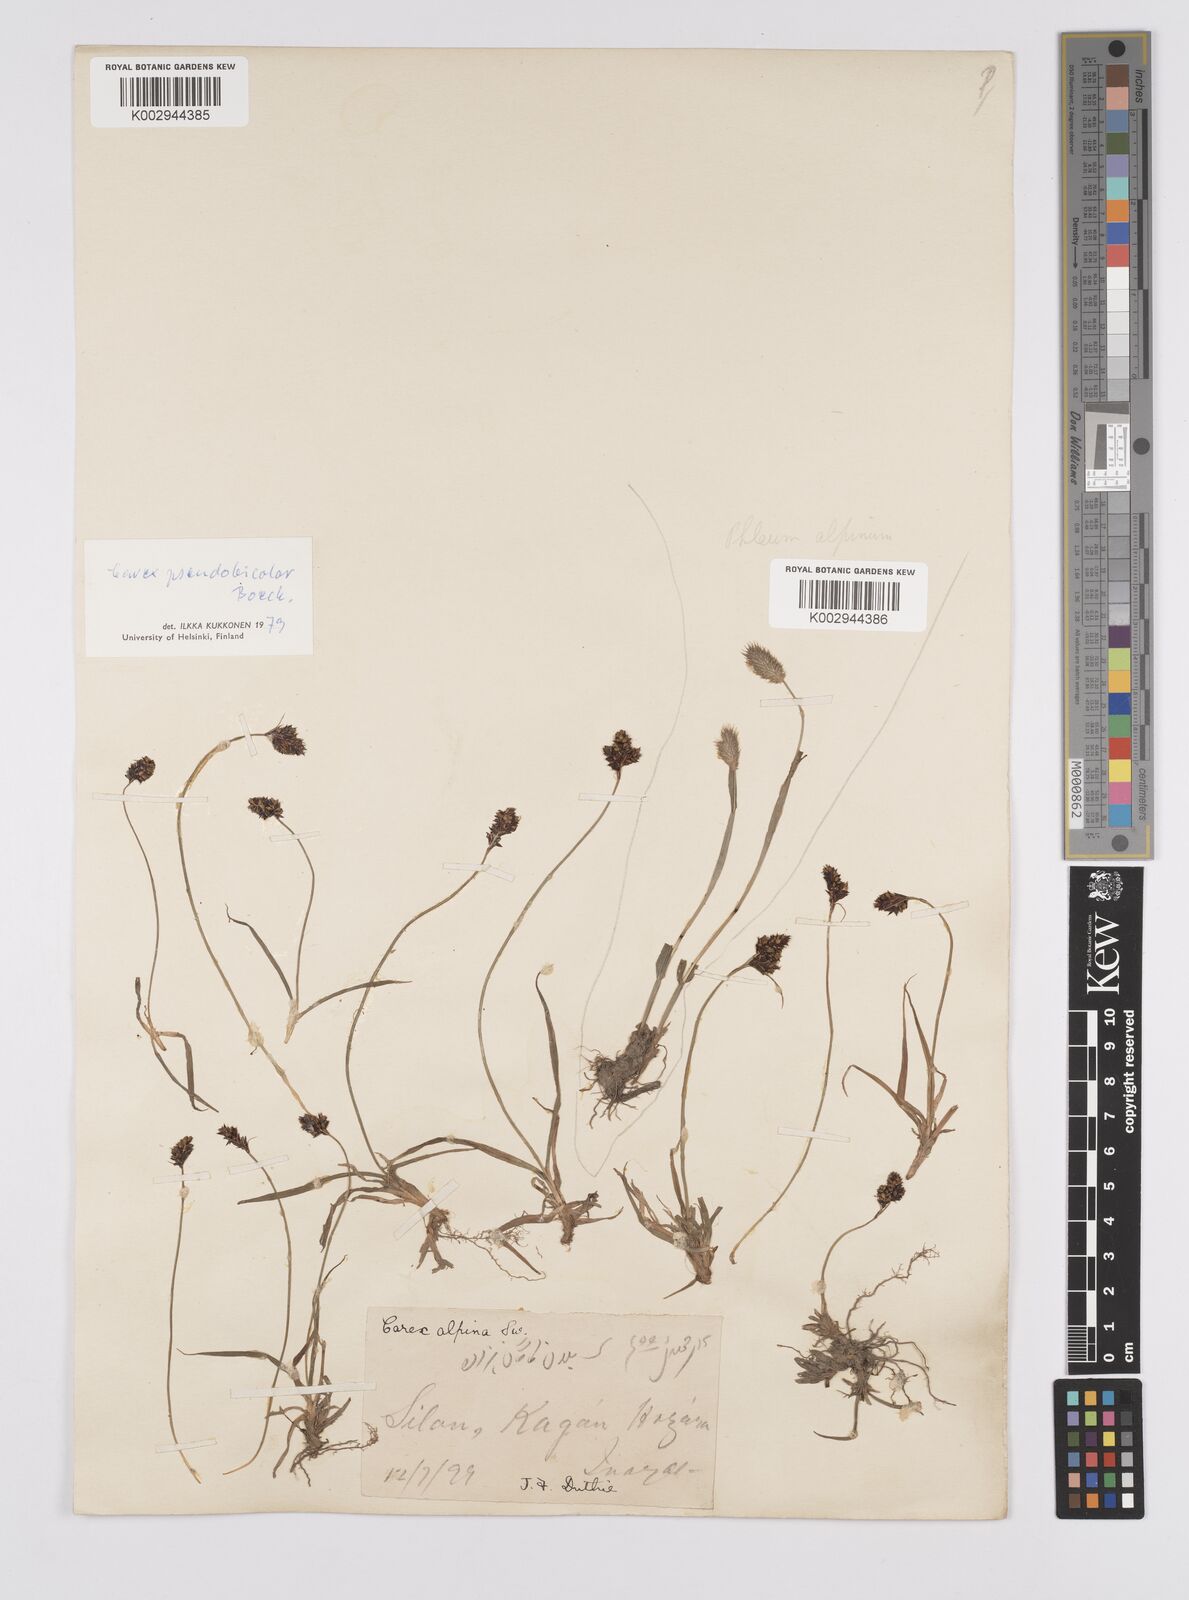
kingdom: Plantae
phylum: Tracheophyta
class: Liliopsida
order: Poales
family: Cyperaceae
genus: Carex
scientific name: Carex norvegica
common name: Close-headed alpine-sedge
